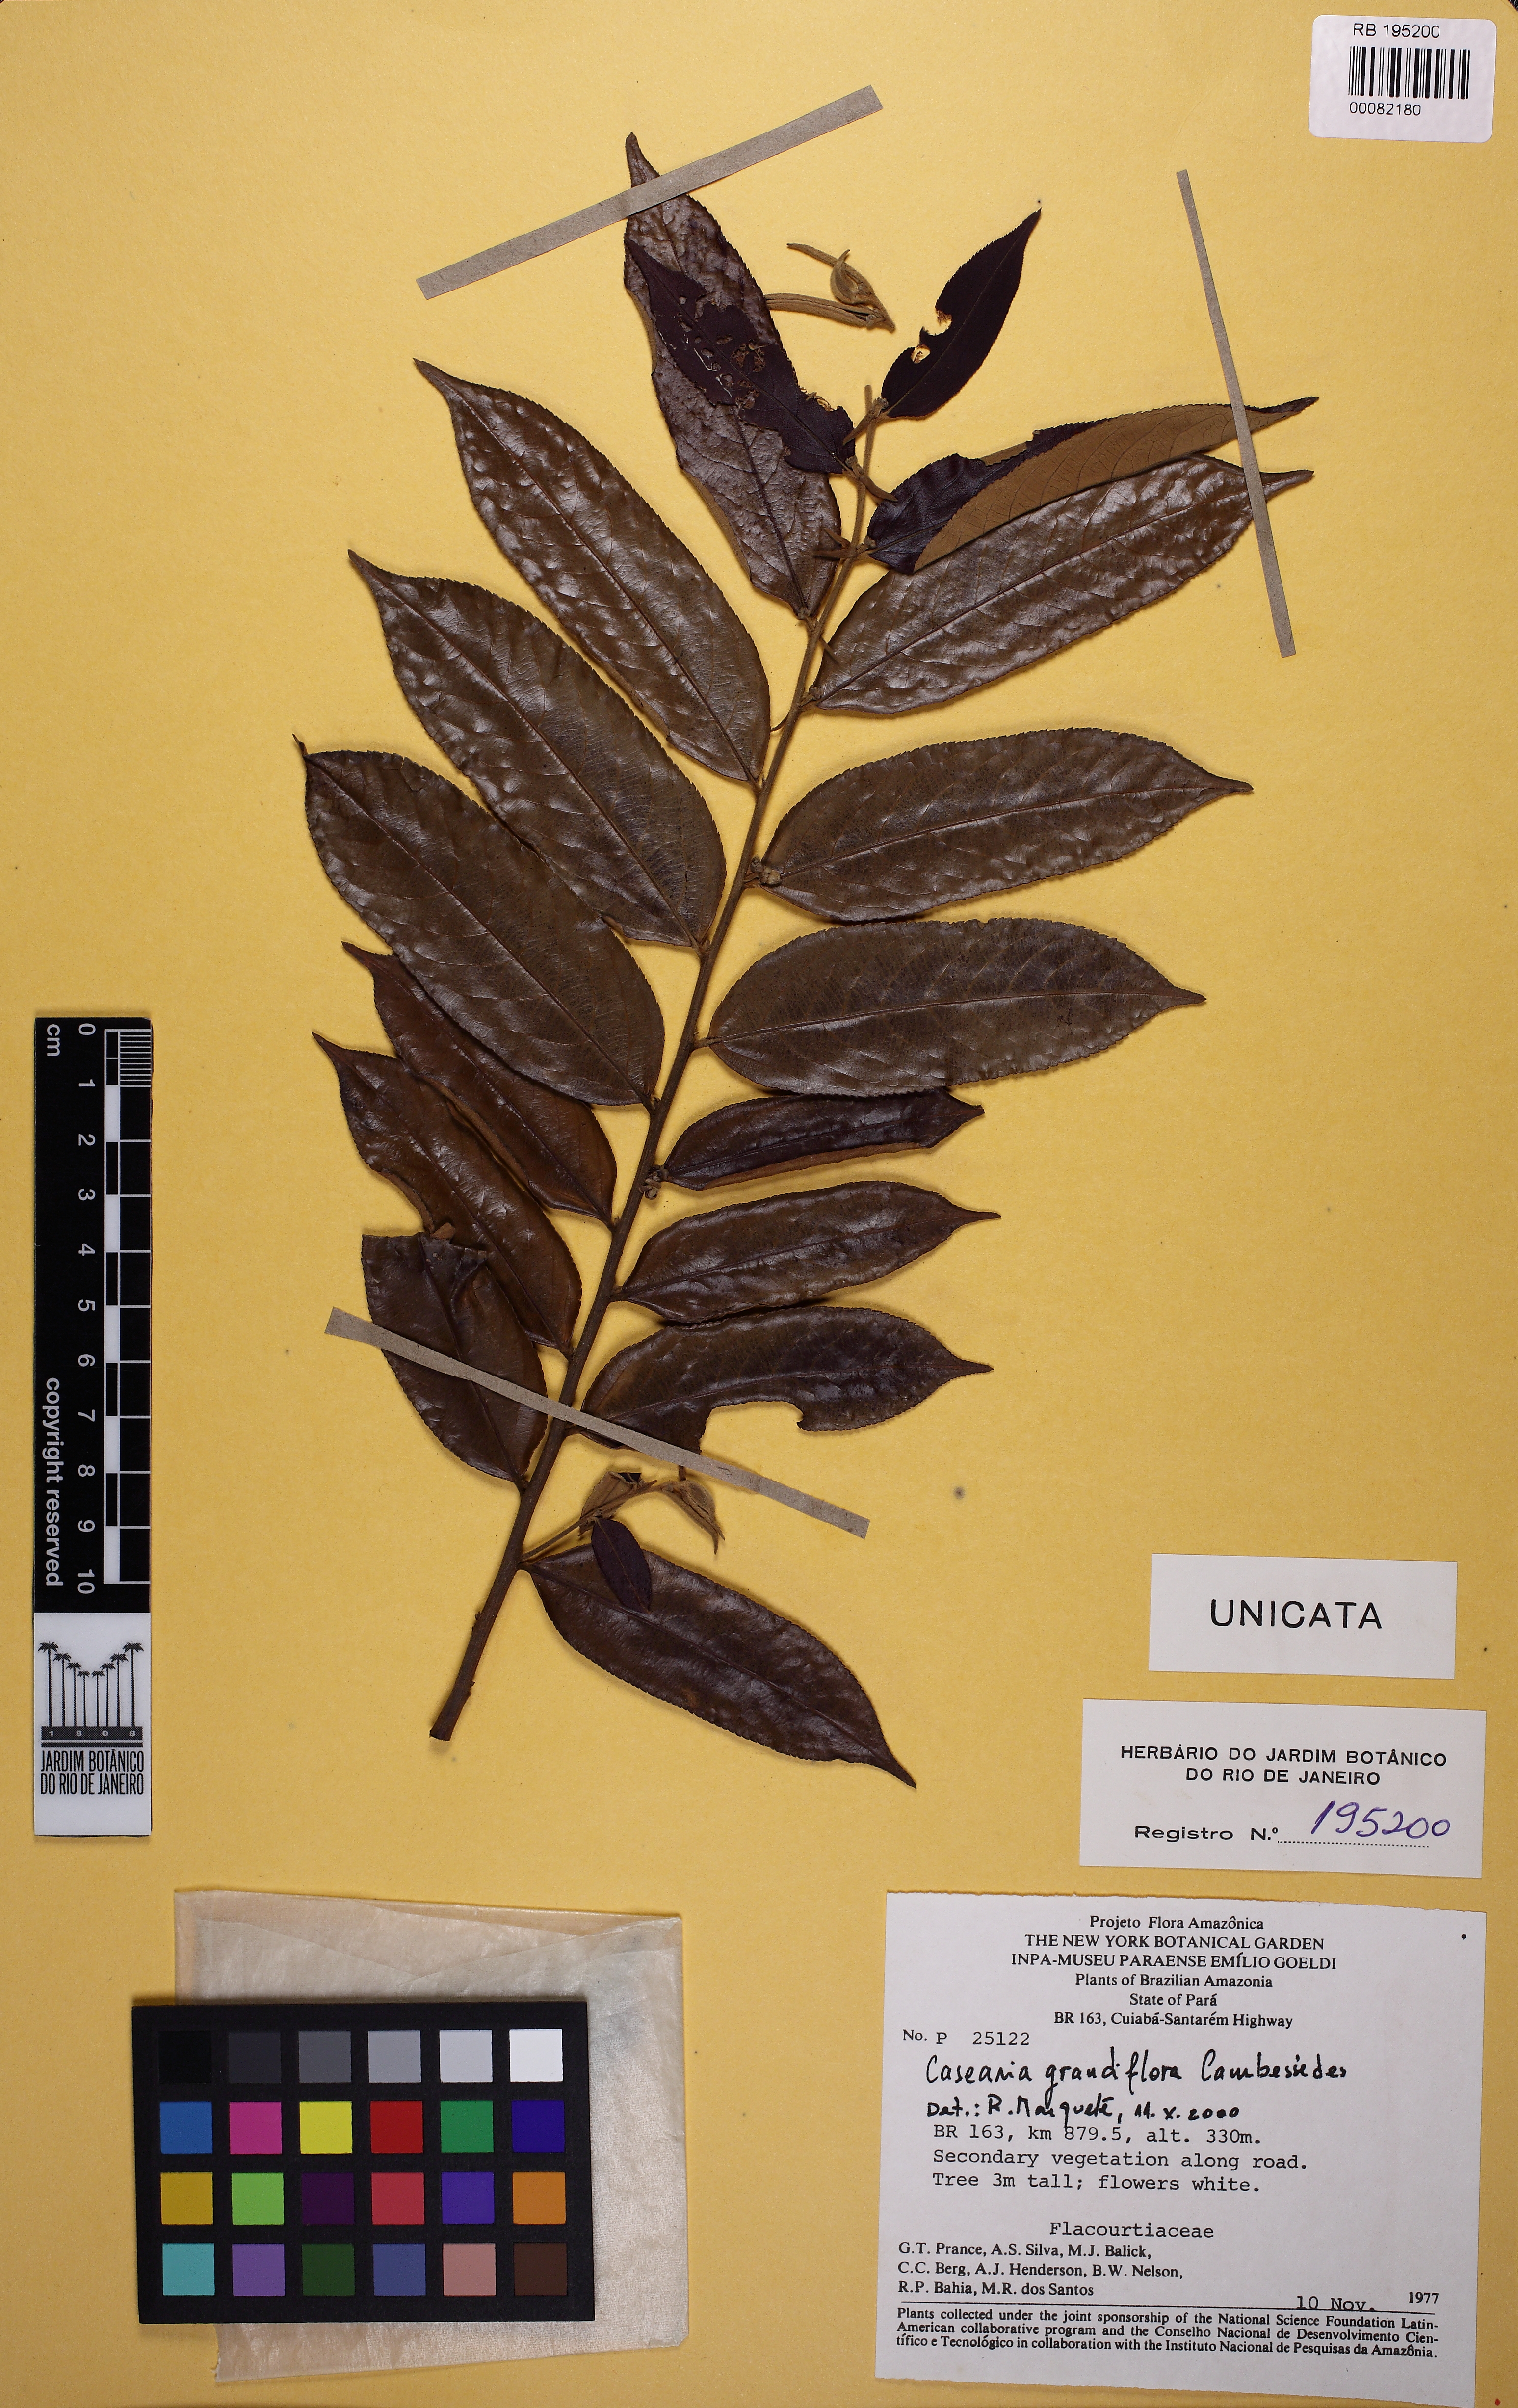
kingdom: Plantae
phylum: Tracheophyta
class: Magnoliopsida
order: Malpighiales
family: Salicaceae
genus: Casearia
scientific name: Casearia grandiflora
